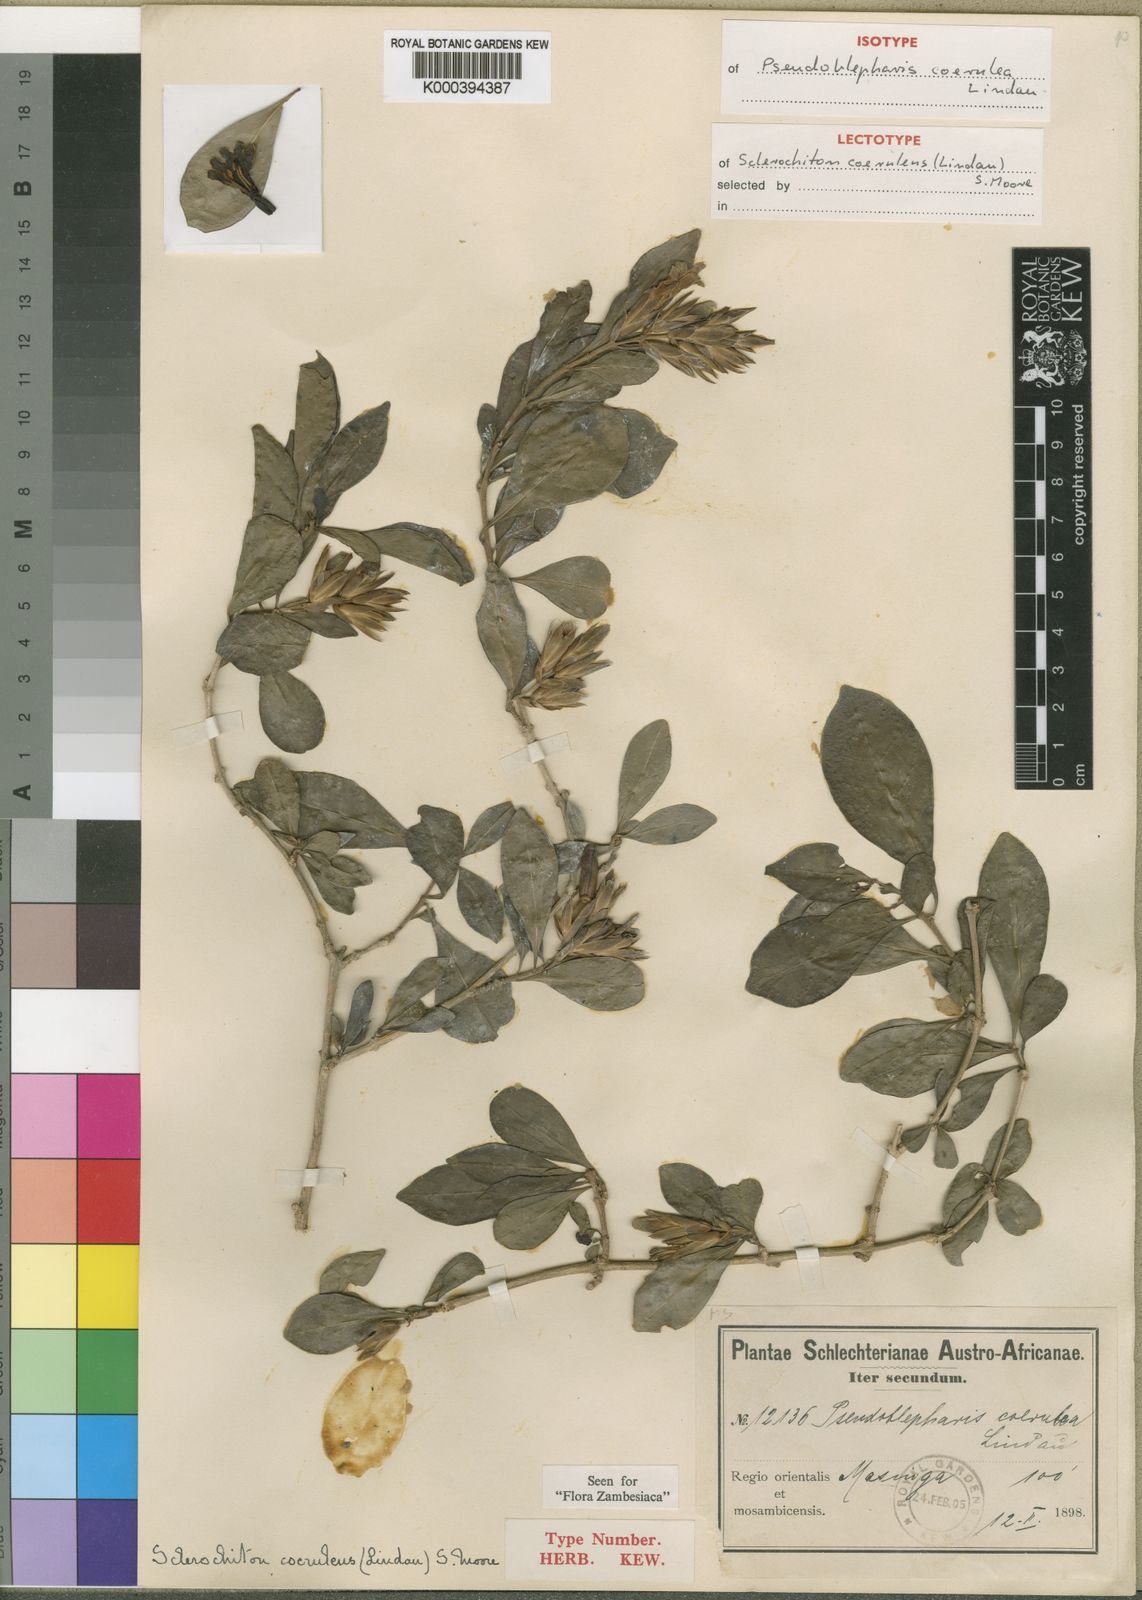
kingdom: Plantae
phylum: Tracheophyta
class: Magnoliopsida
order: Lamiales
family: Acanthaceae
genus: Sclerochiton
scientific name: Sclerochiton apiculatus
